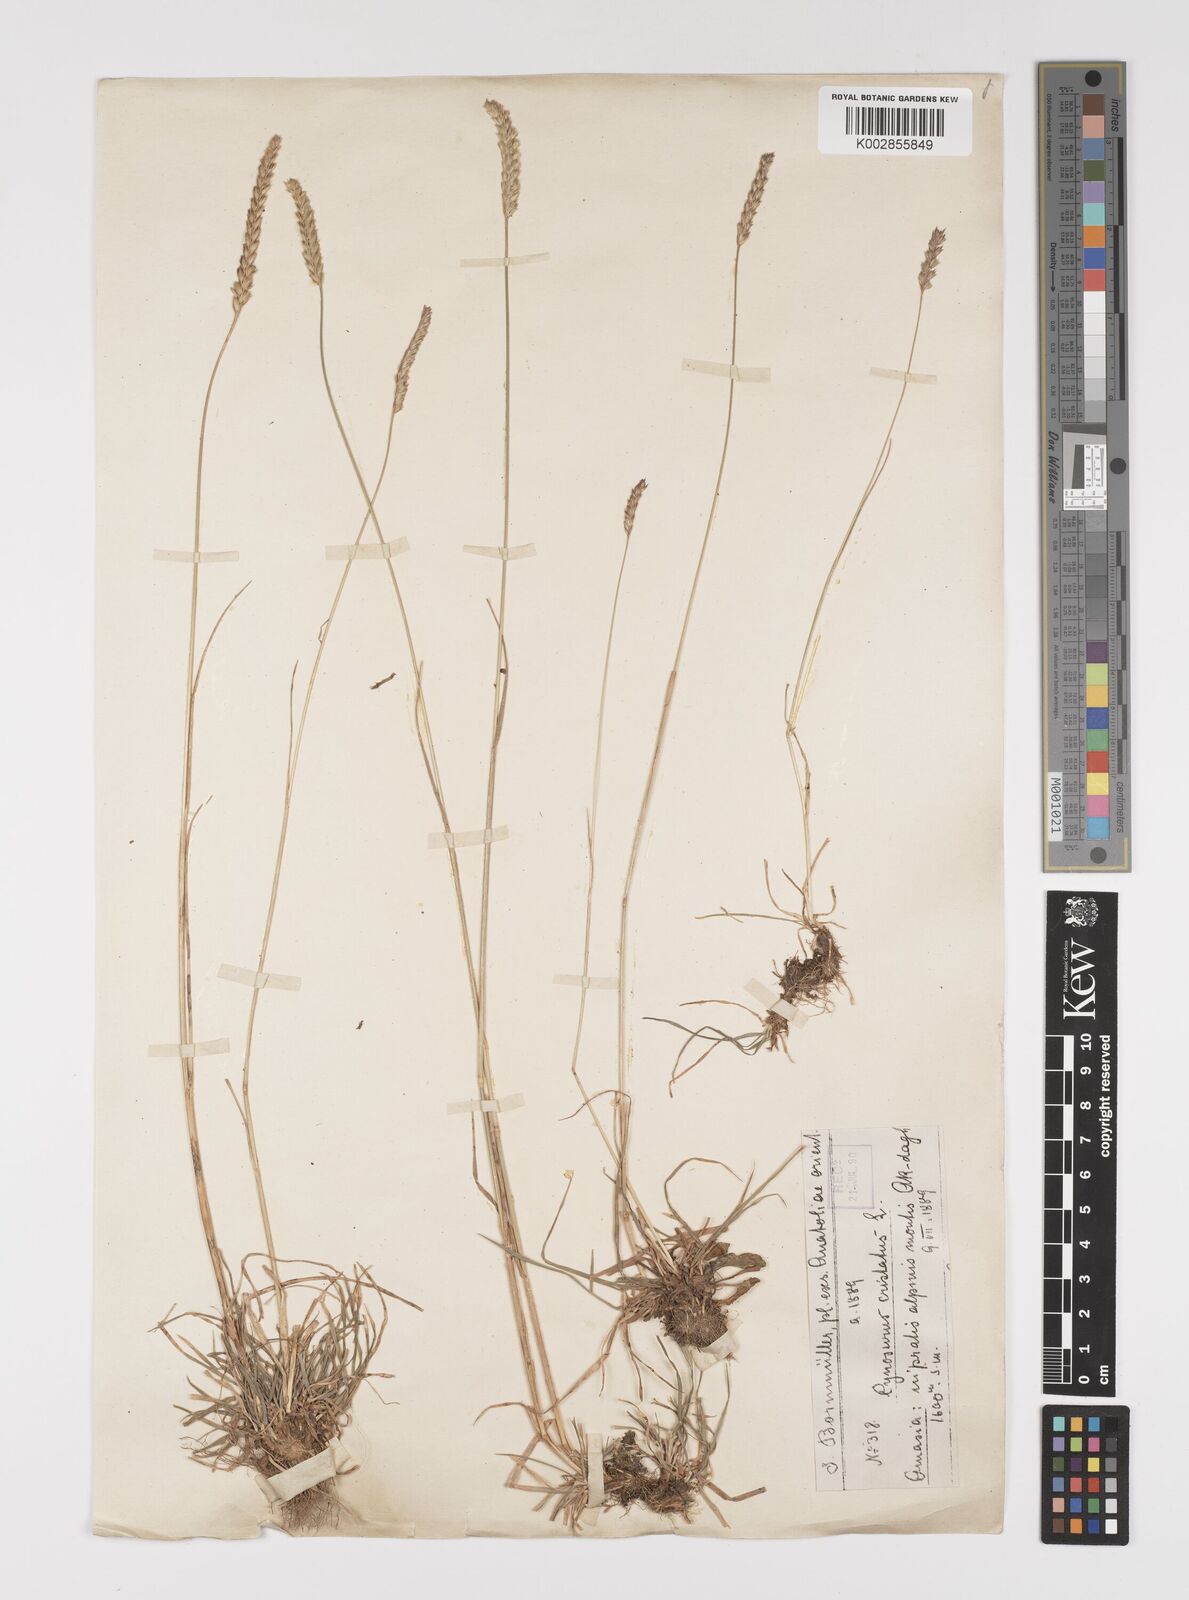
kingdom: Plantae
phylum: Tracheophyta
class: Liliopsida
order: Poales
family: Poaceae
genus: Cynosurus
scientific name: Cynosurus cristatus
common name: Crested dog's-tail
